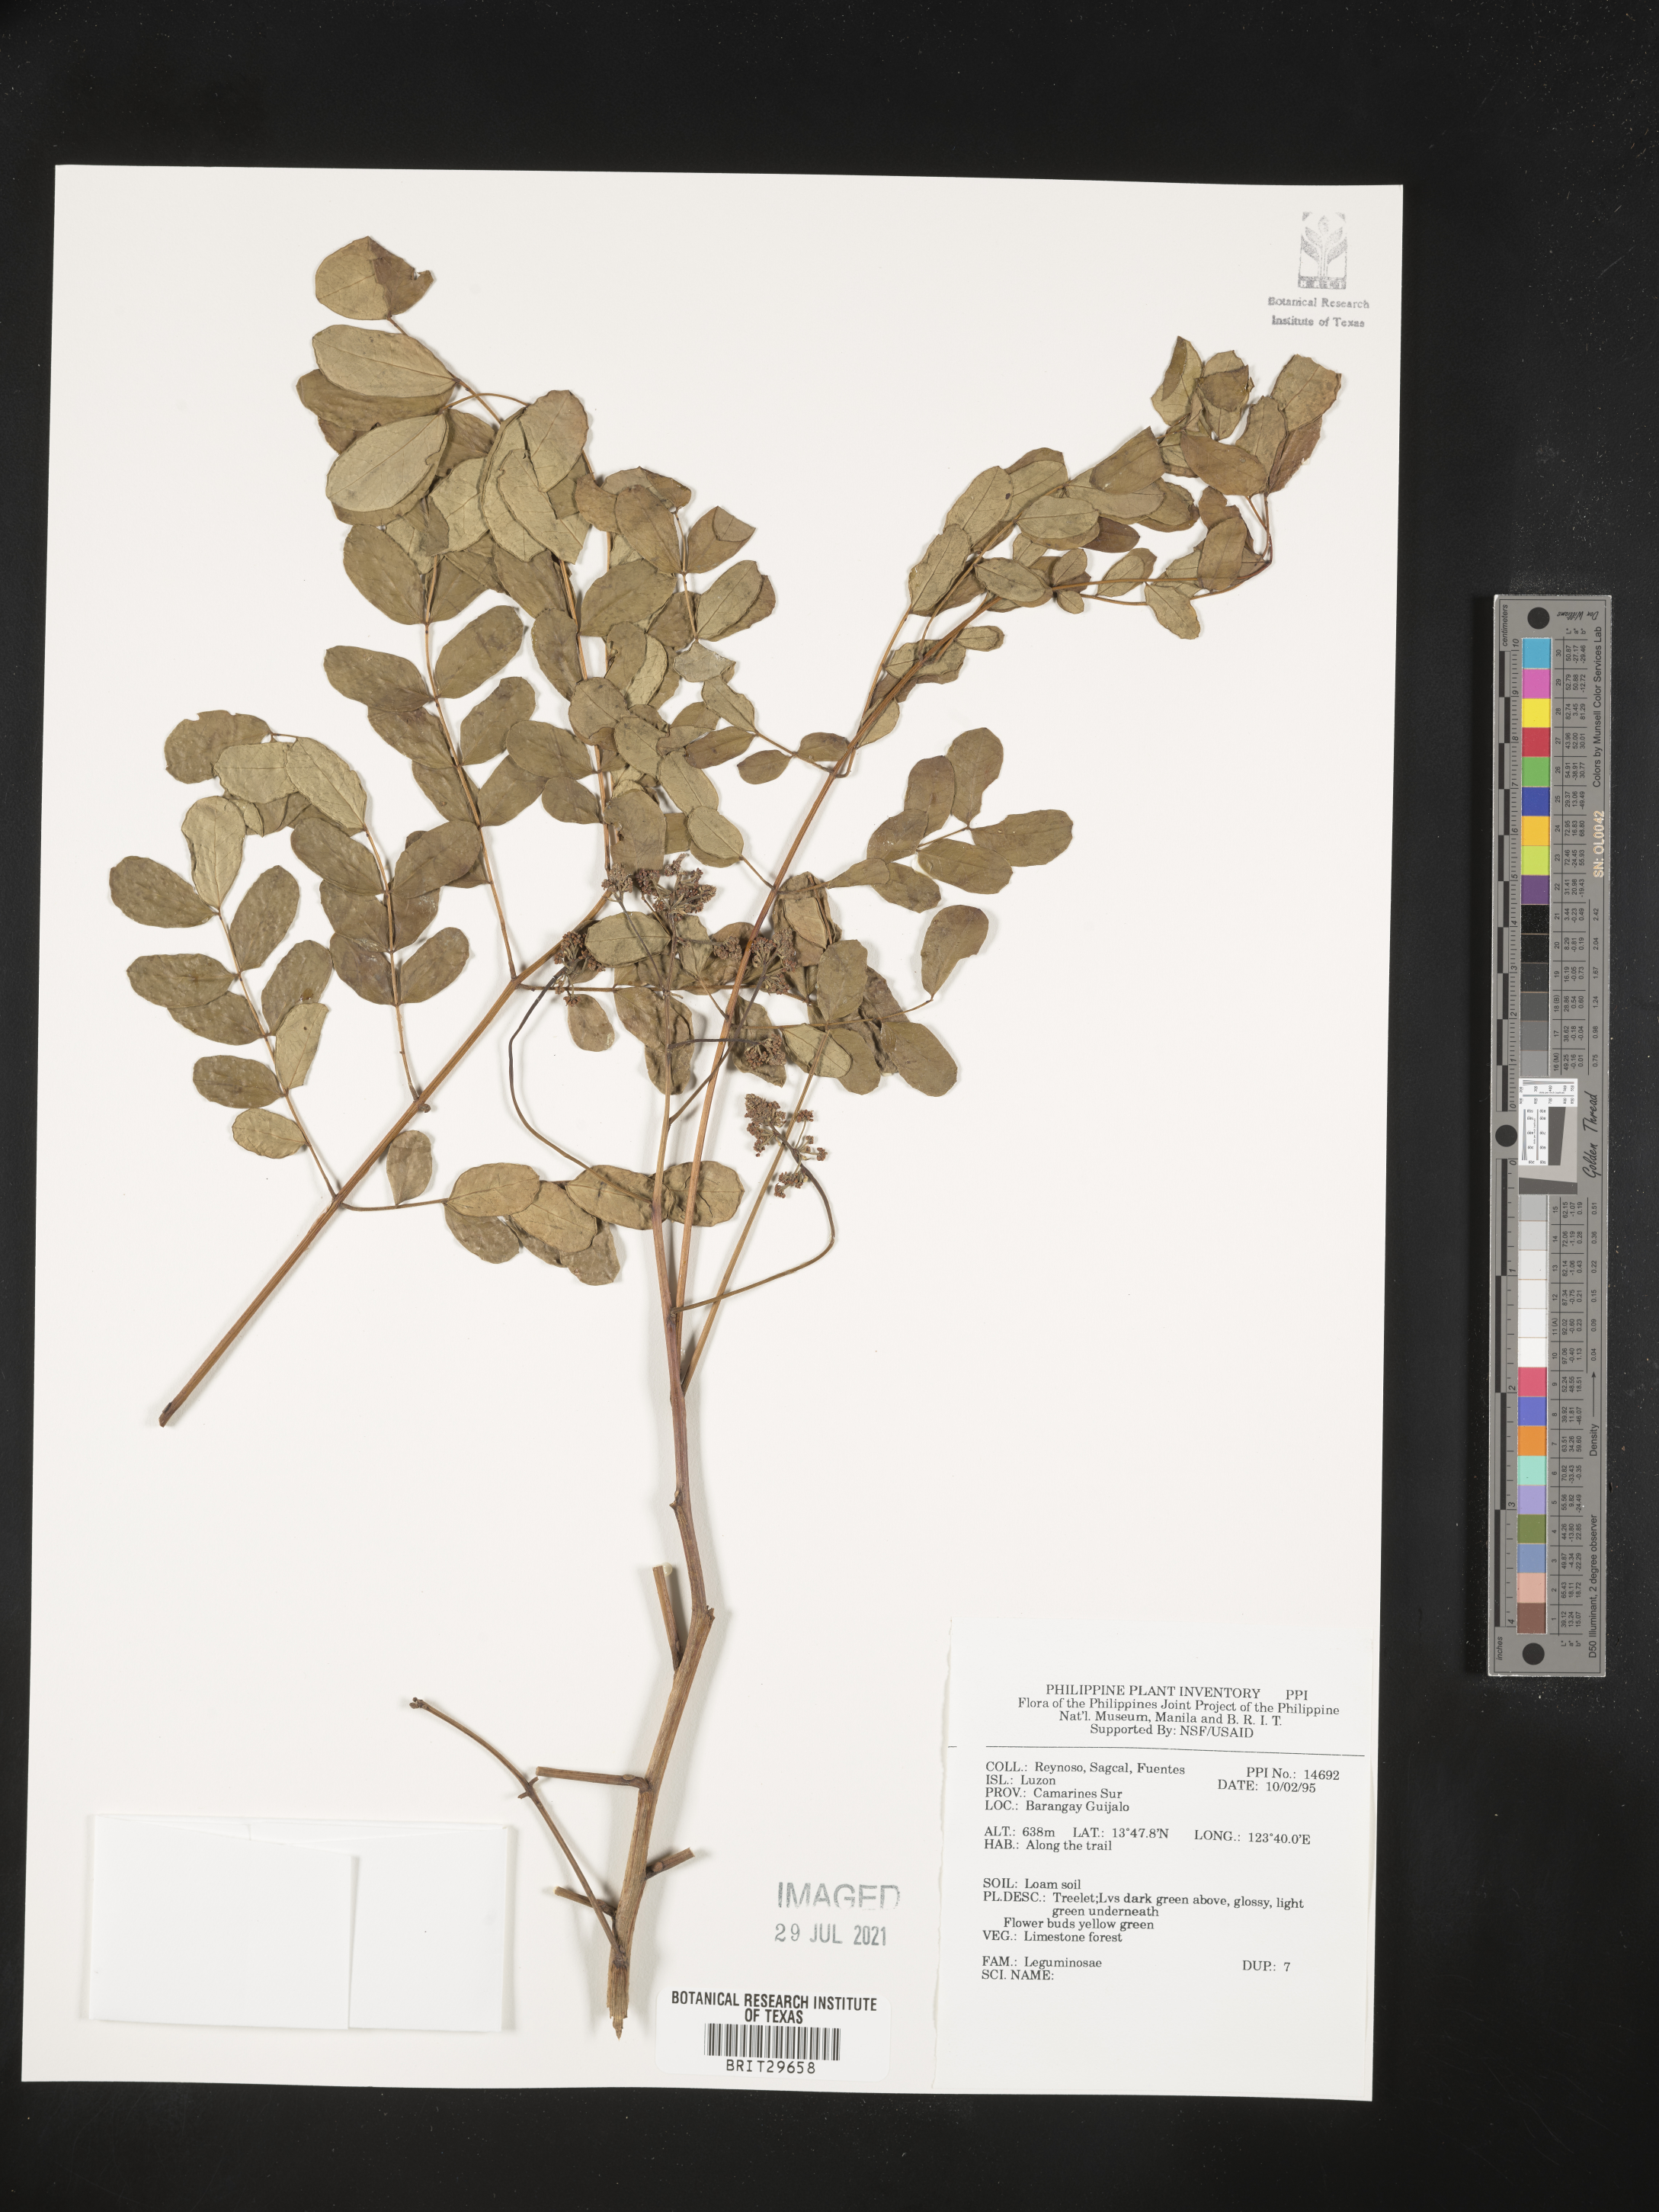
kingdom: Plantae
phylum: Tracheophyta
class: Magnoliopsida
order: Fabales
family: Fabaceae
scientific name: Fabaceae
